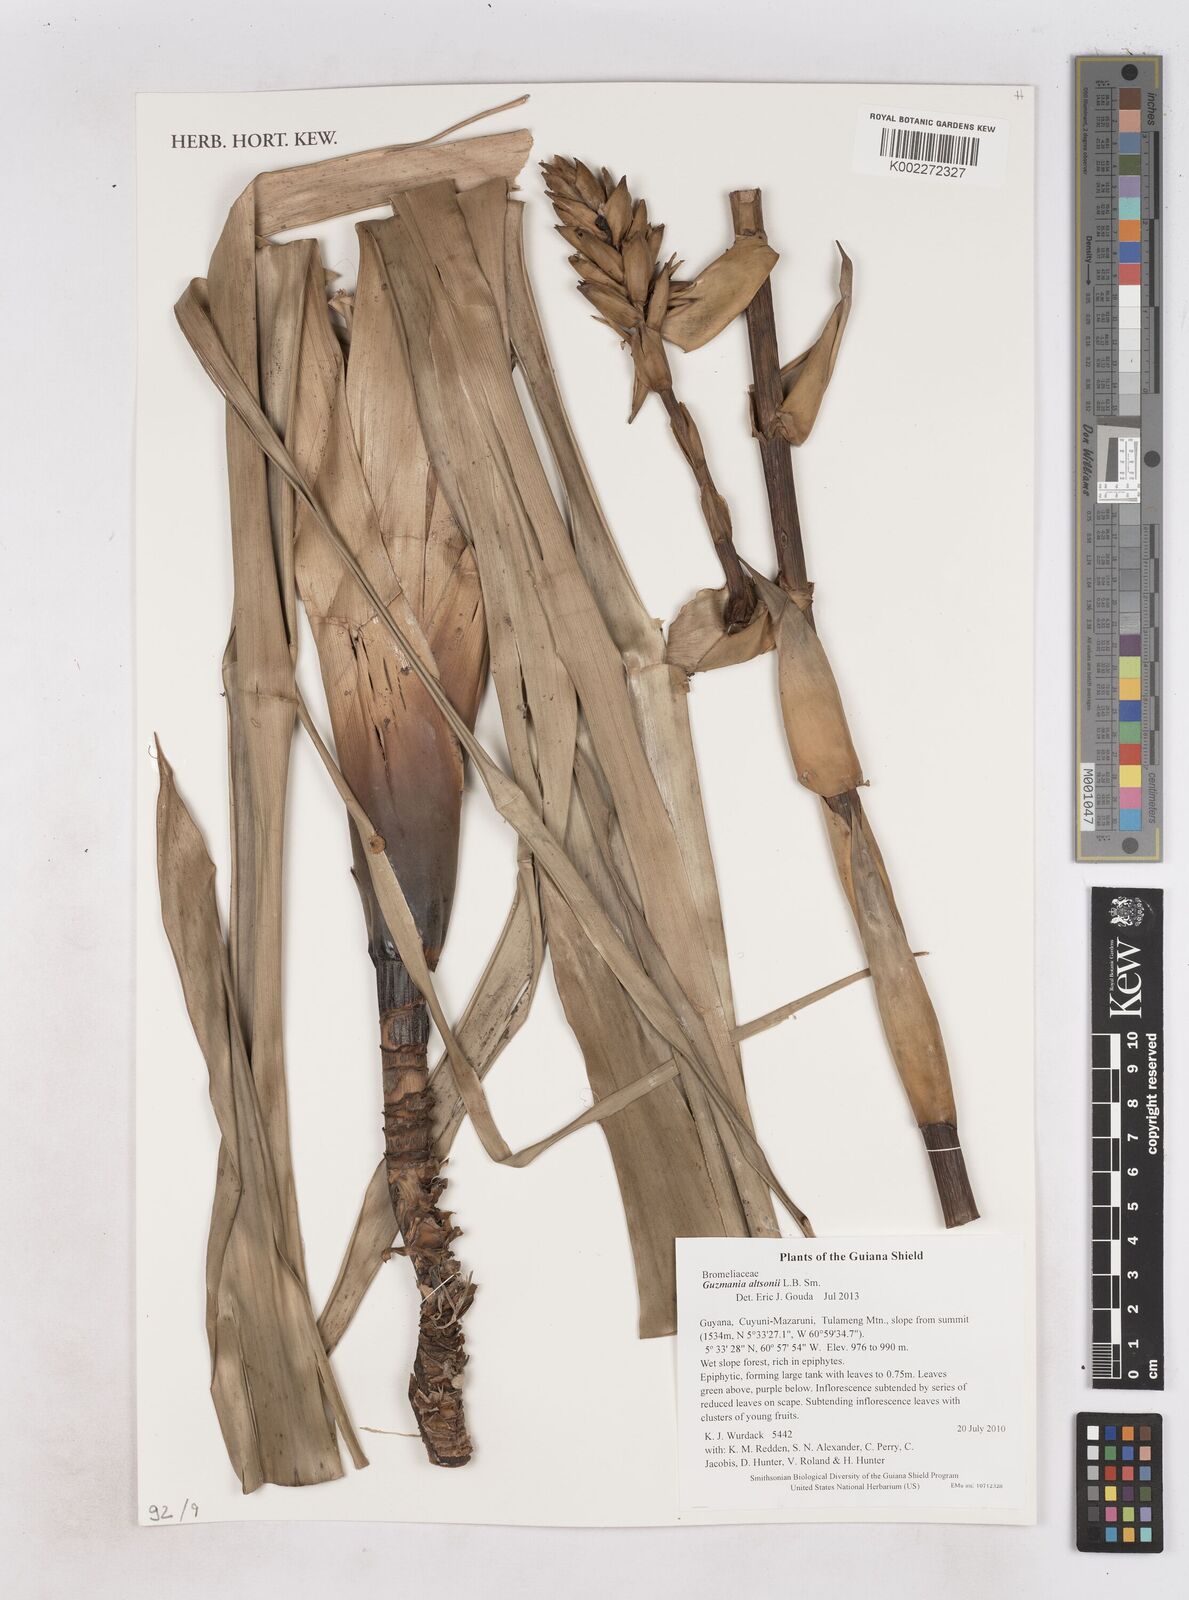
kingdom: Plantae
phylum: Tracheophyta
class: Liliopsida
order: Poales
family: Bromeliaceae
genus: Guzmania
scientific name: Guzmania altsonii
